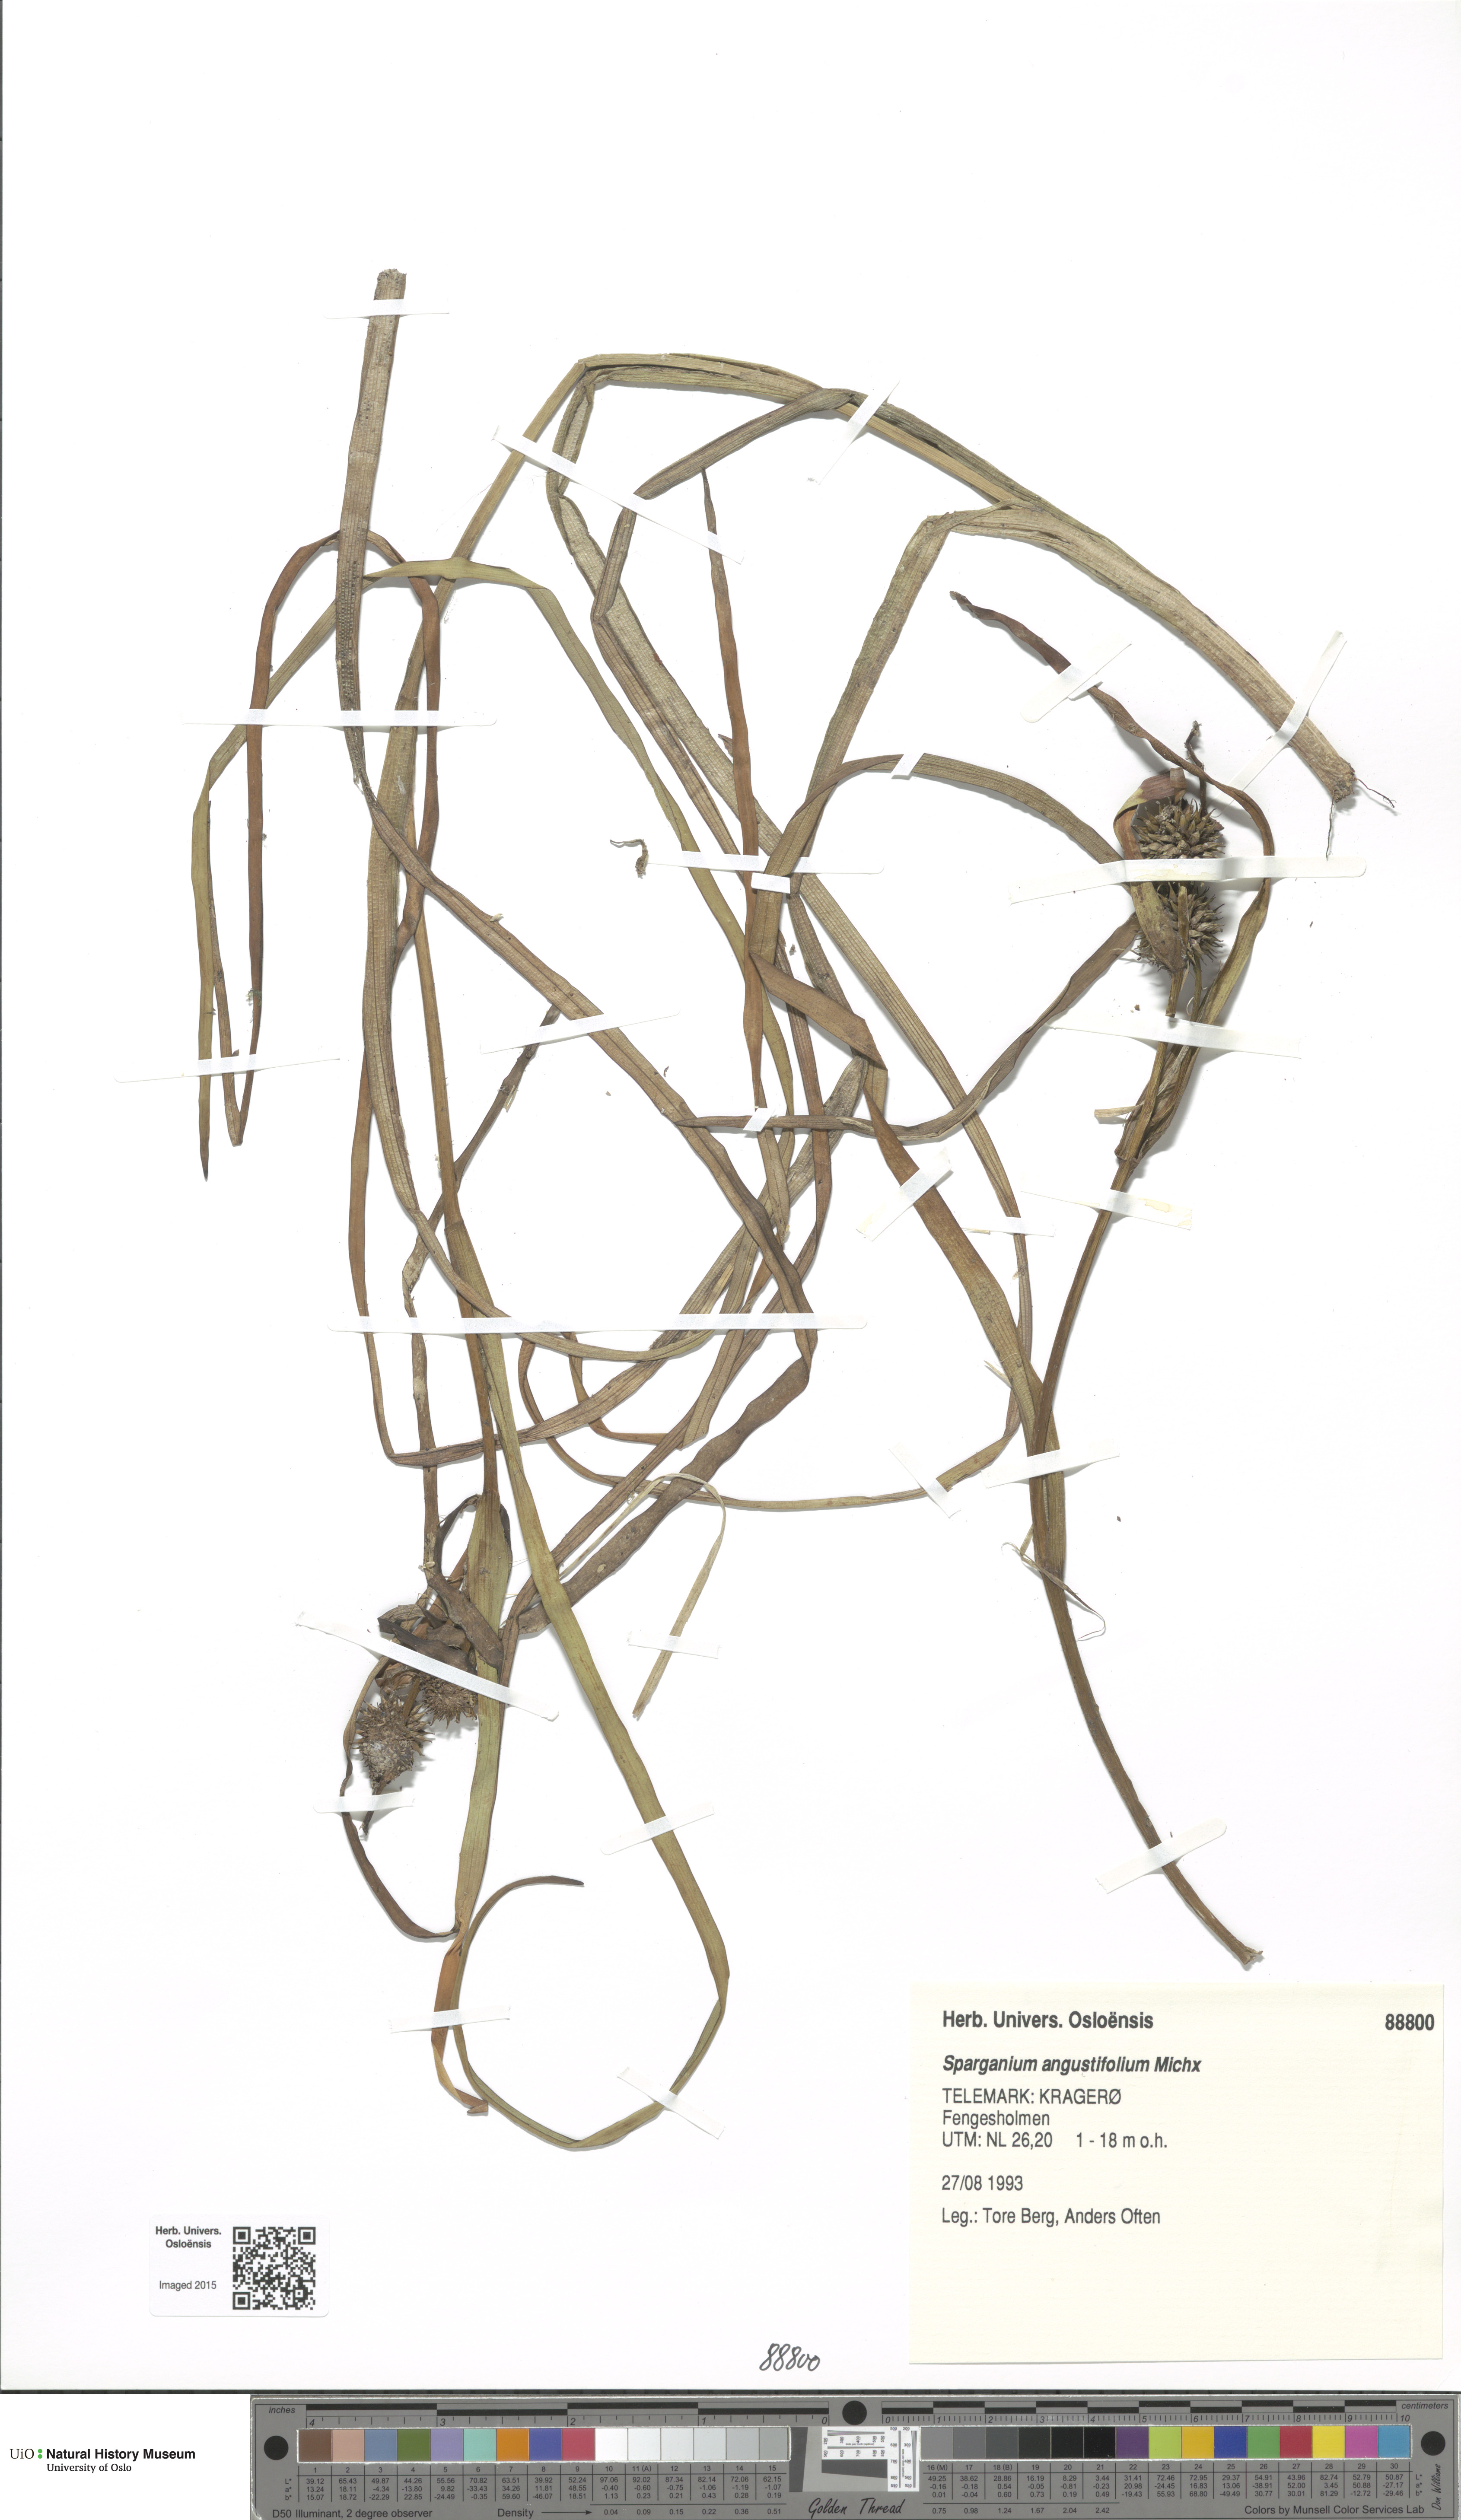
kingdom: Plantae
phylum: Tracheophyta
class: Liliopsida
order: Poales
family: Typhaceae
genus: Sparganium
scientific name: Sparganium angustifolium
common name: Floating bur-reed
